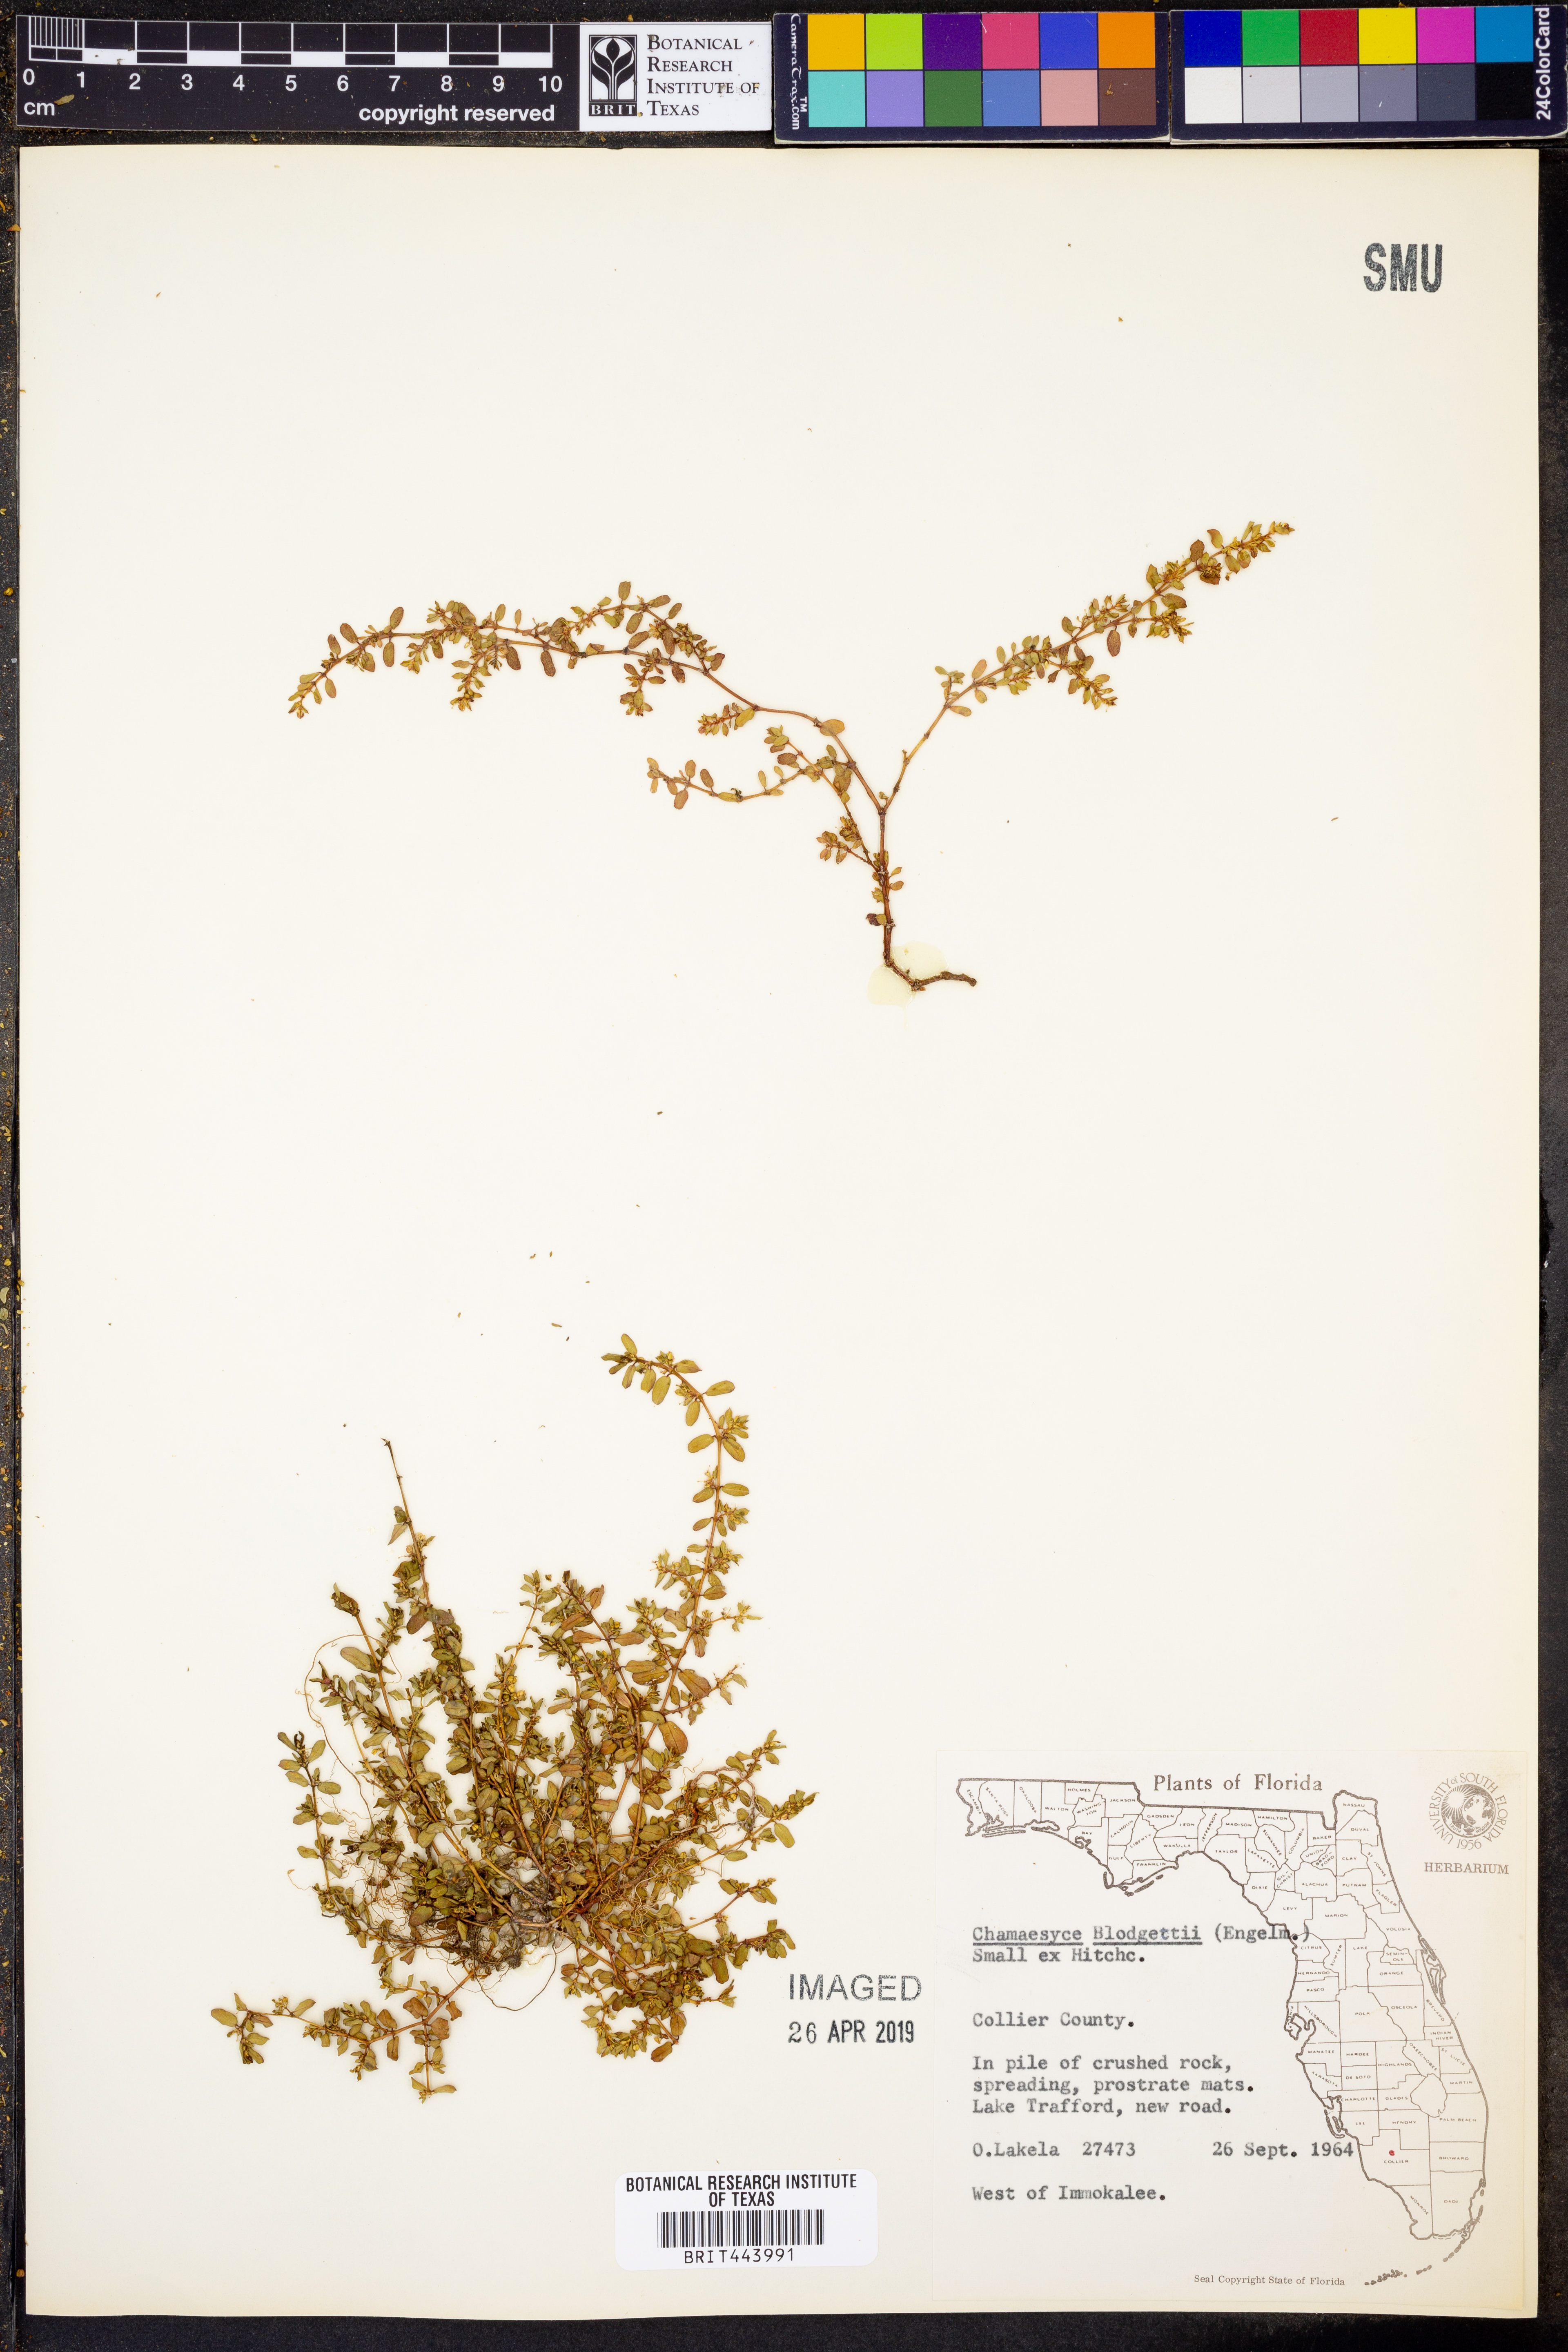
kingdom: Plantae
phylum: Tracheophyta
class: Magnoliopsida
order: Malpighiales
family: Euphorbiaceae
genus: Euphorbia
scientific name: Euphorbia blodgettii
